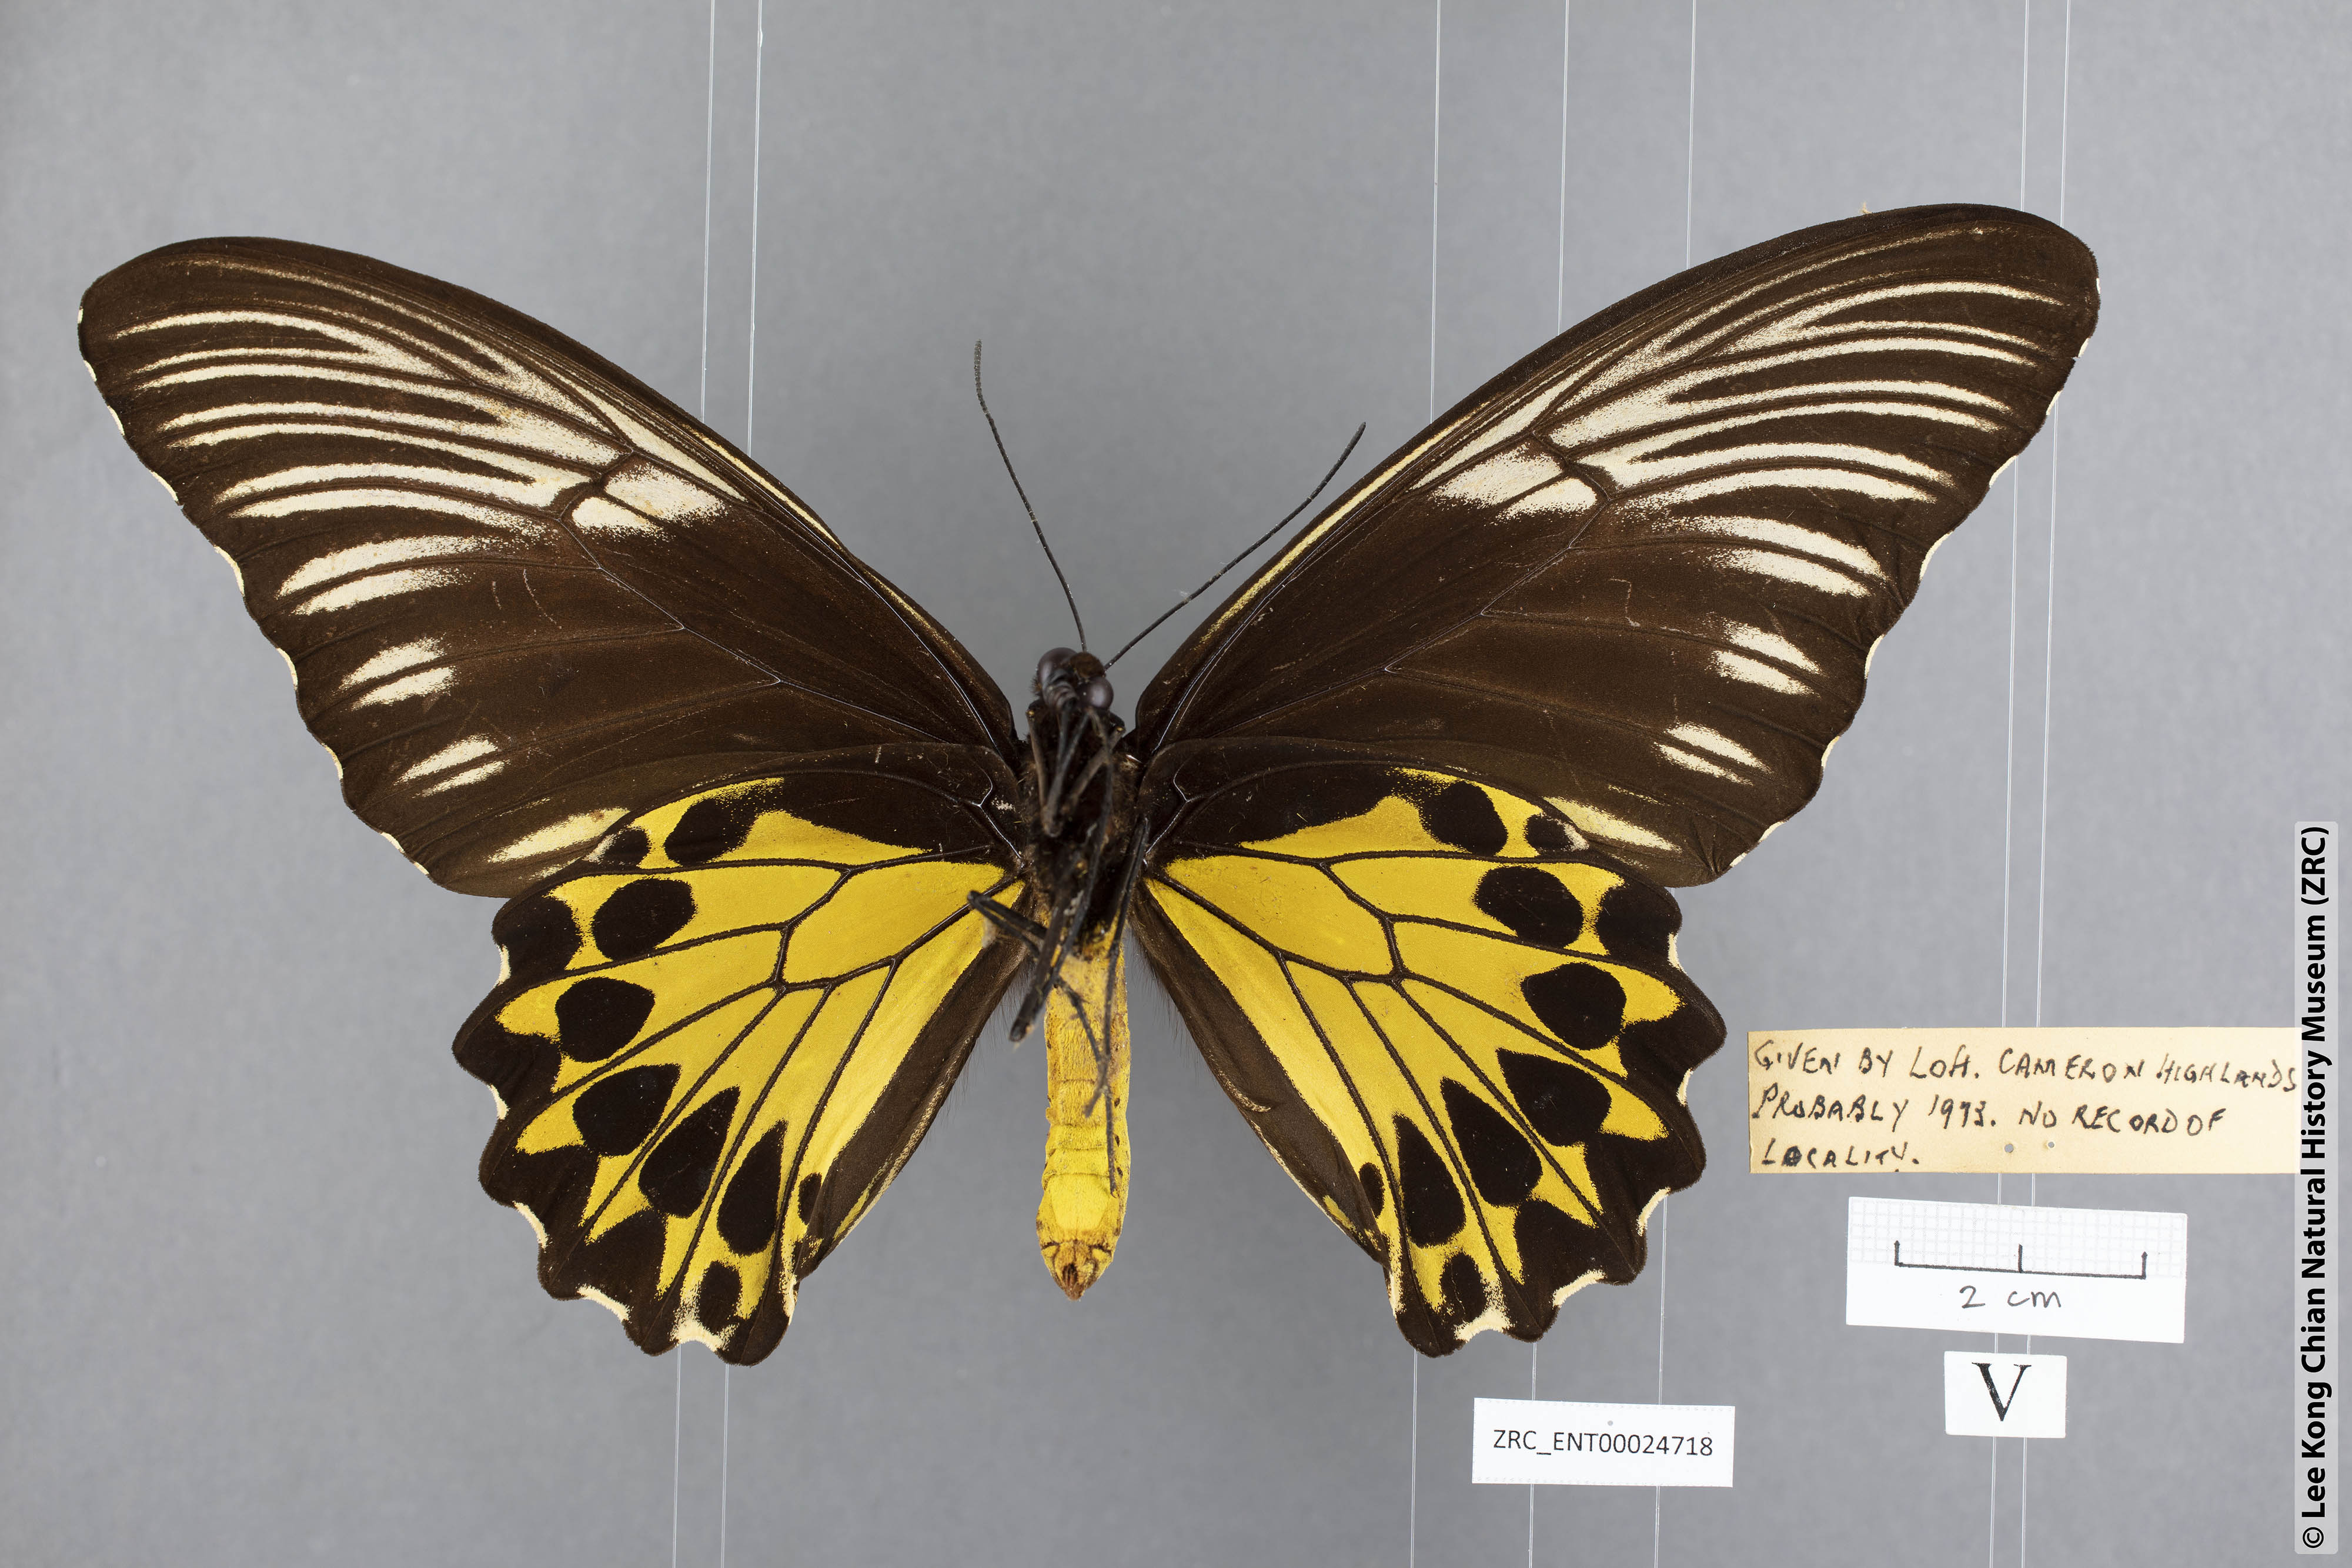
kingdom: Animalia
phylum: Arthropoda
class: Insecta
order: Lepidoptera
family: Papilionidae
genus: Troides
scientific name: Troides amphyrus
